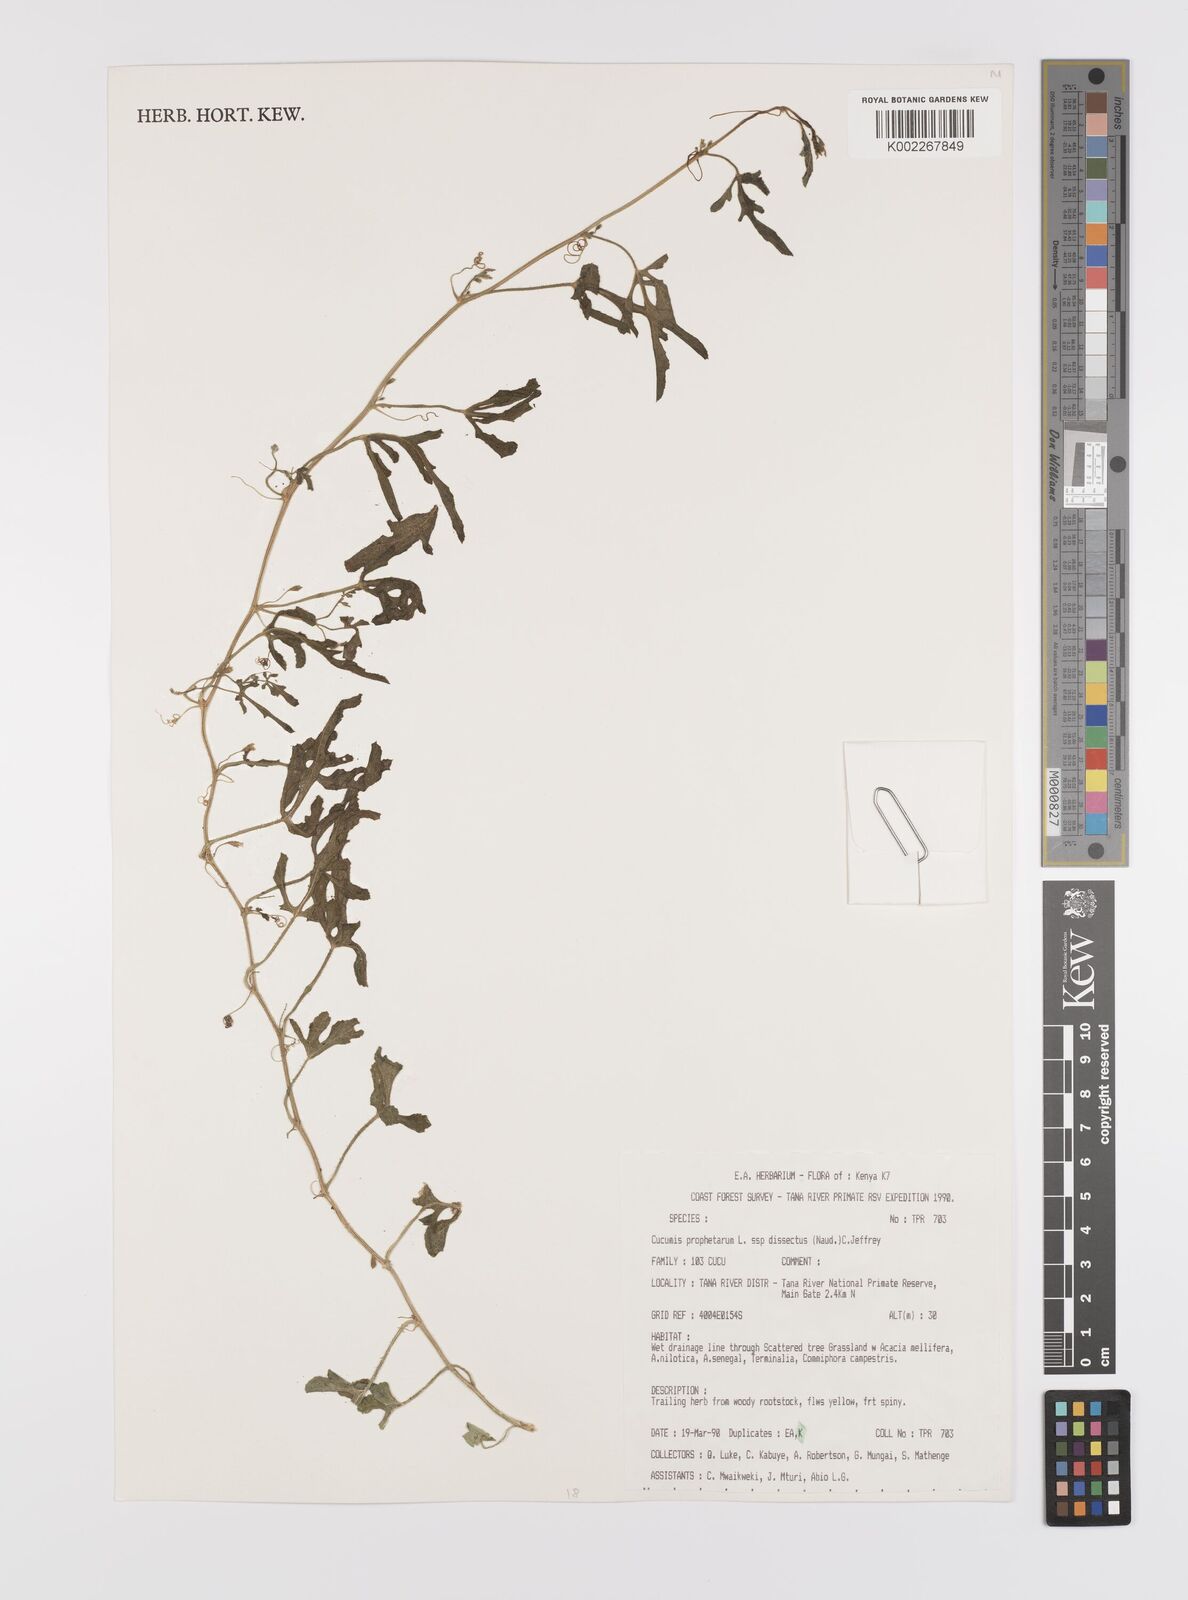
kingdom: Plantae
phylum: Tracheophyta
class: Magnoliopsida
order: Cucurbitales
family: Cucurbitaceae
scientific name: Cucurbitaceae
